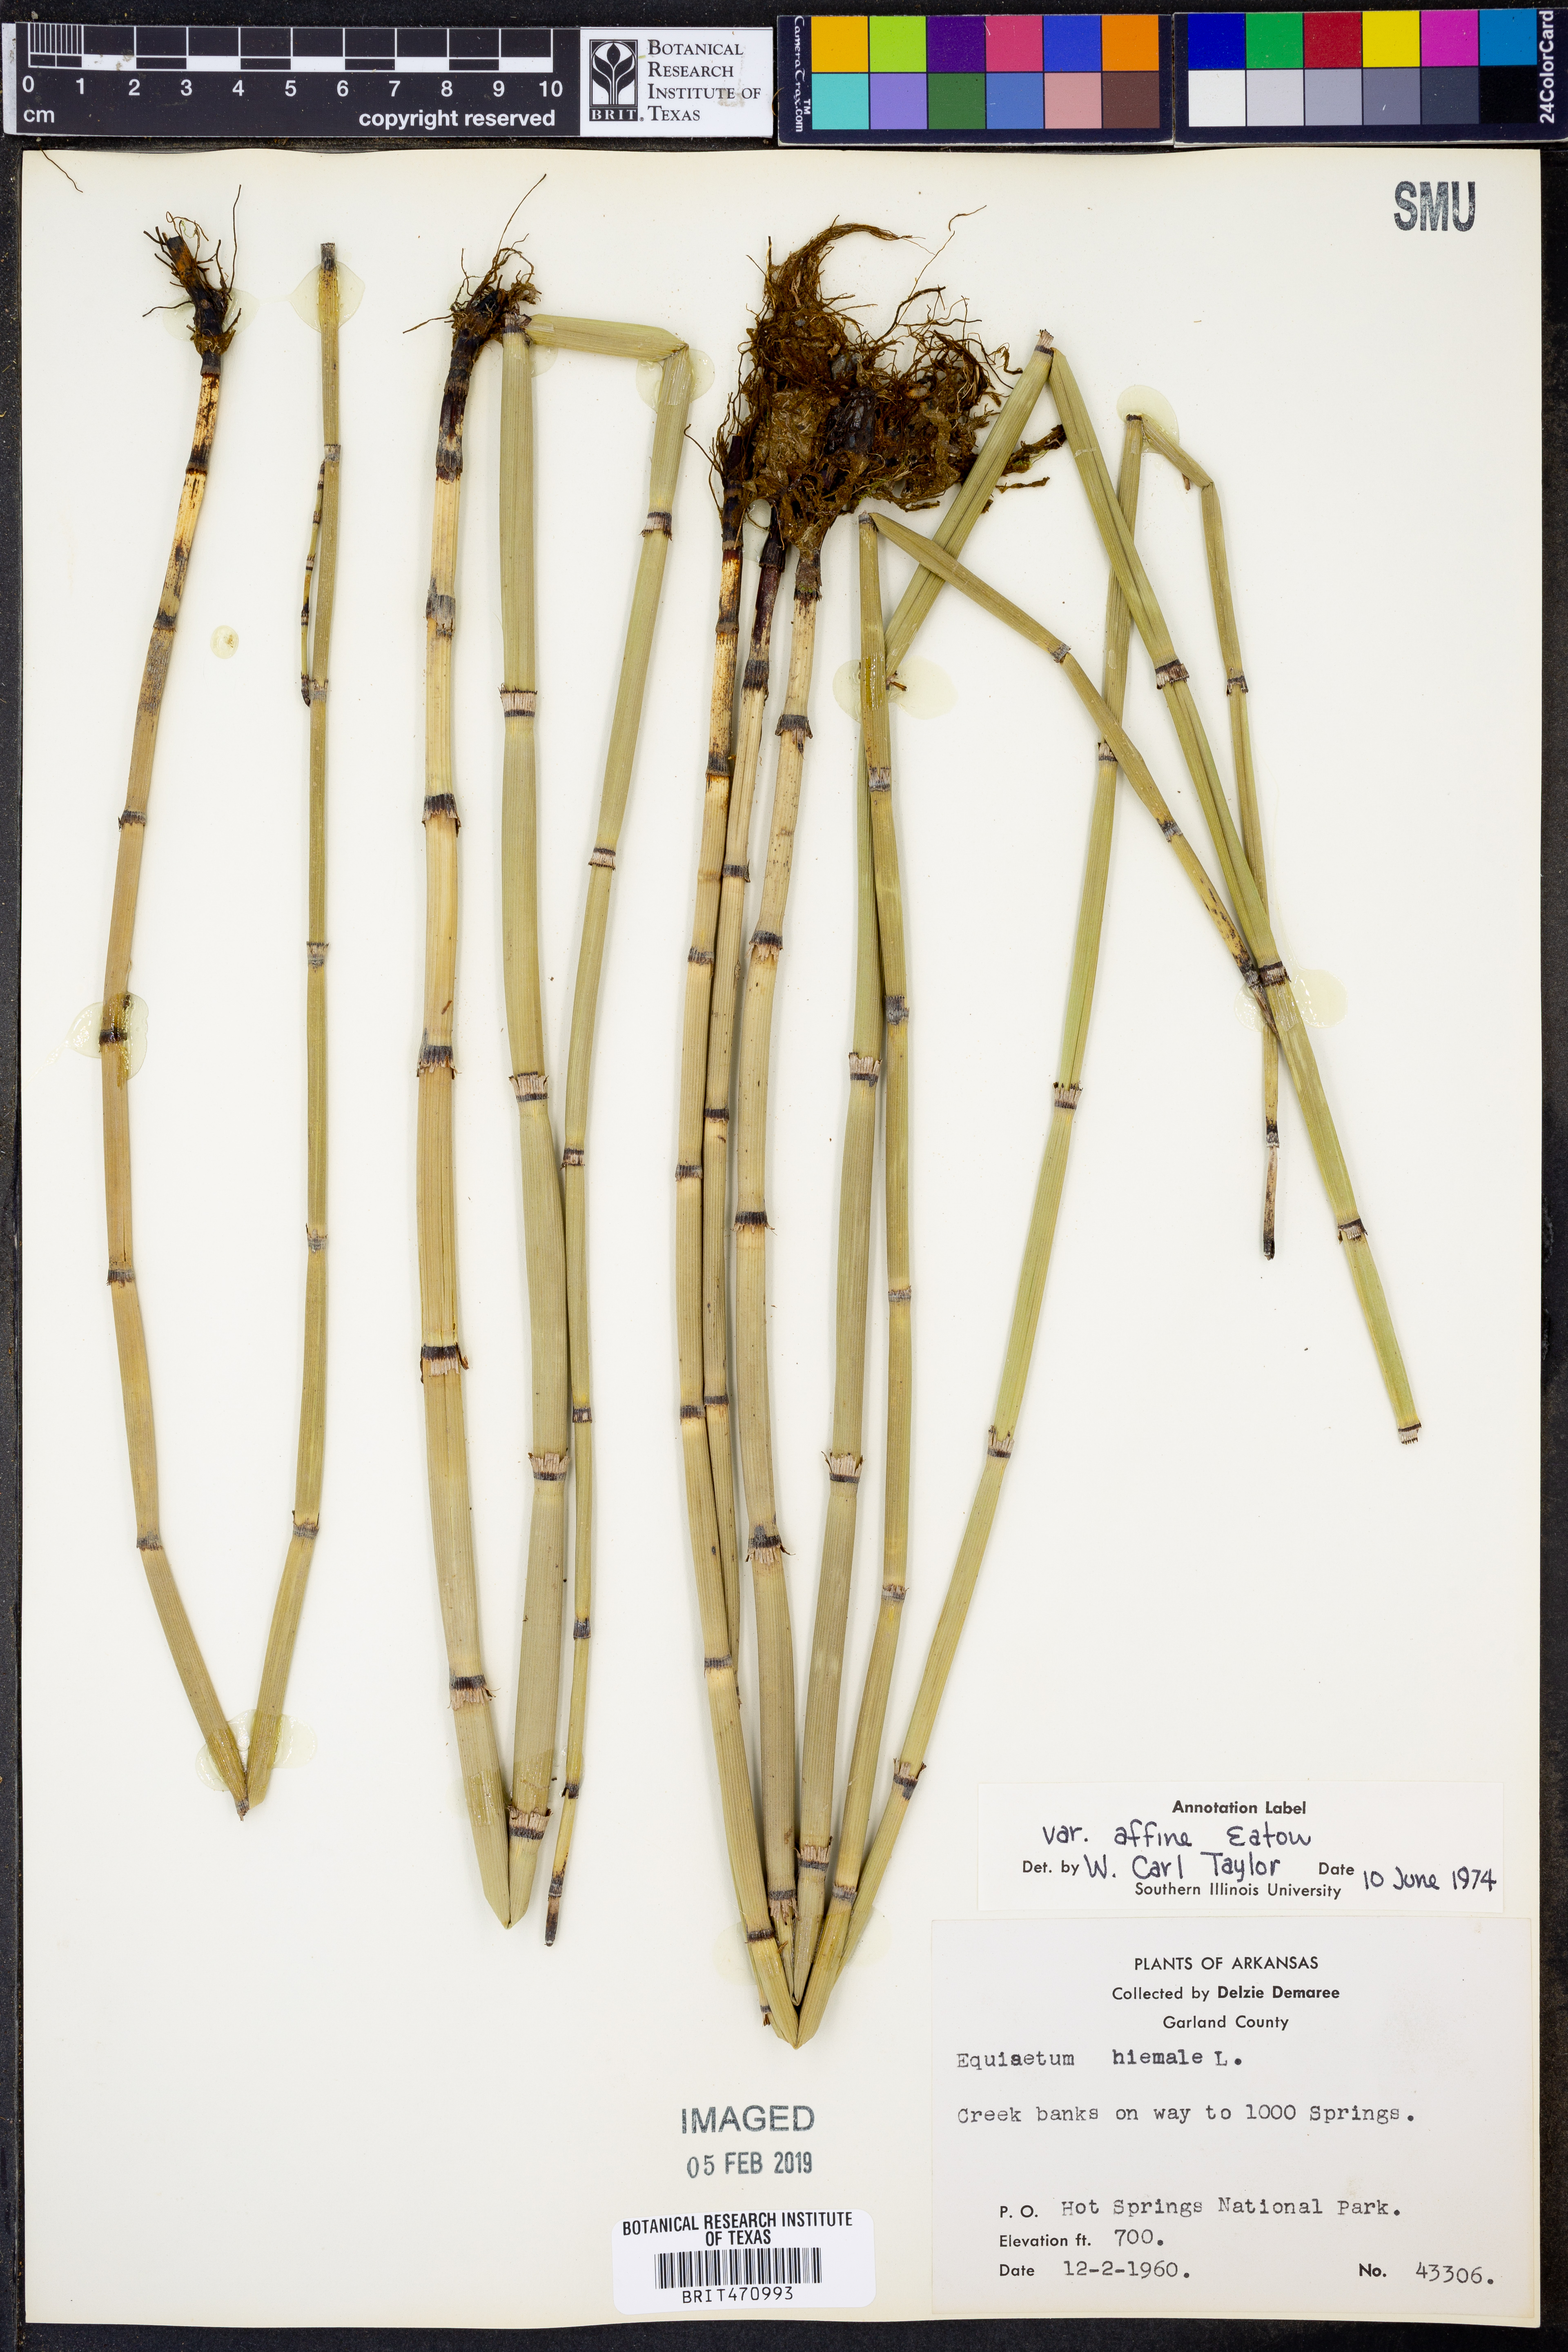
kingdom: Plantae
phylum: Tracheophyta
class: Polypodiopsida
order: Equisetales
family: Equisetaceae
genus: Equisetum
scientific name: Equisetum praealtum
